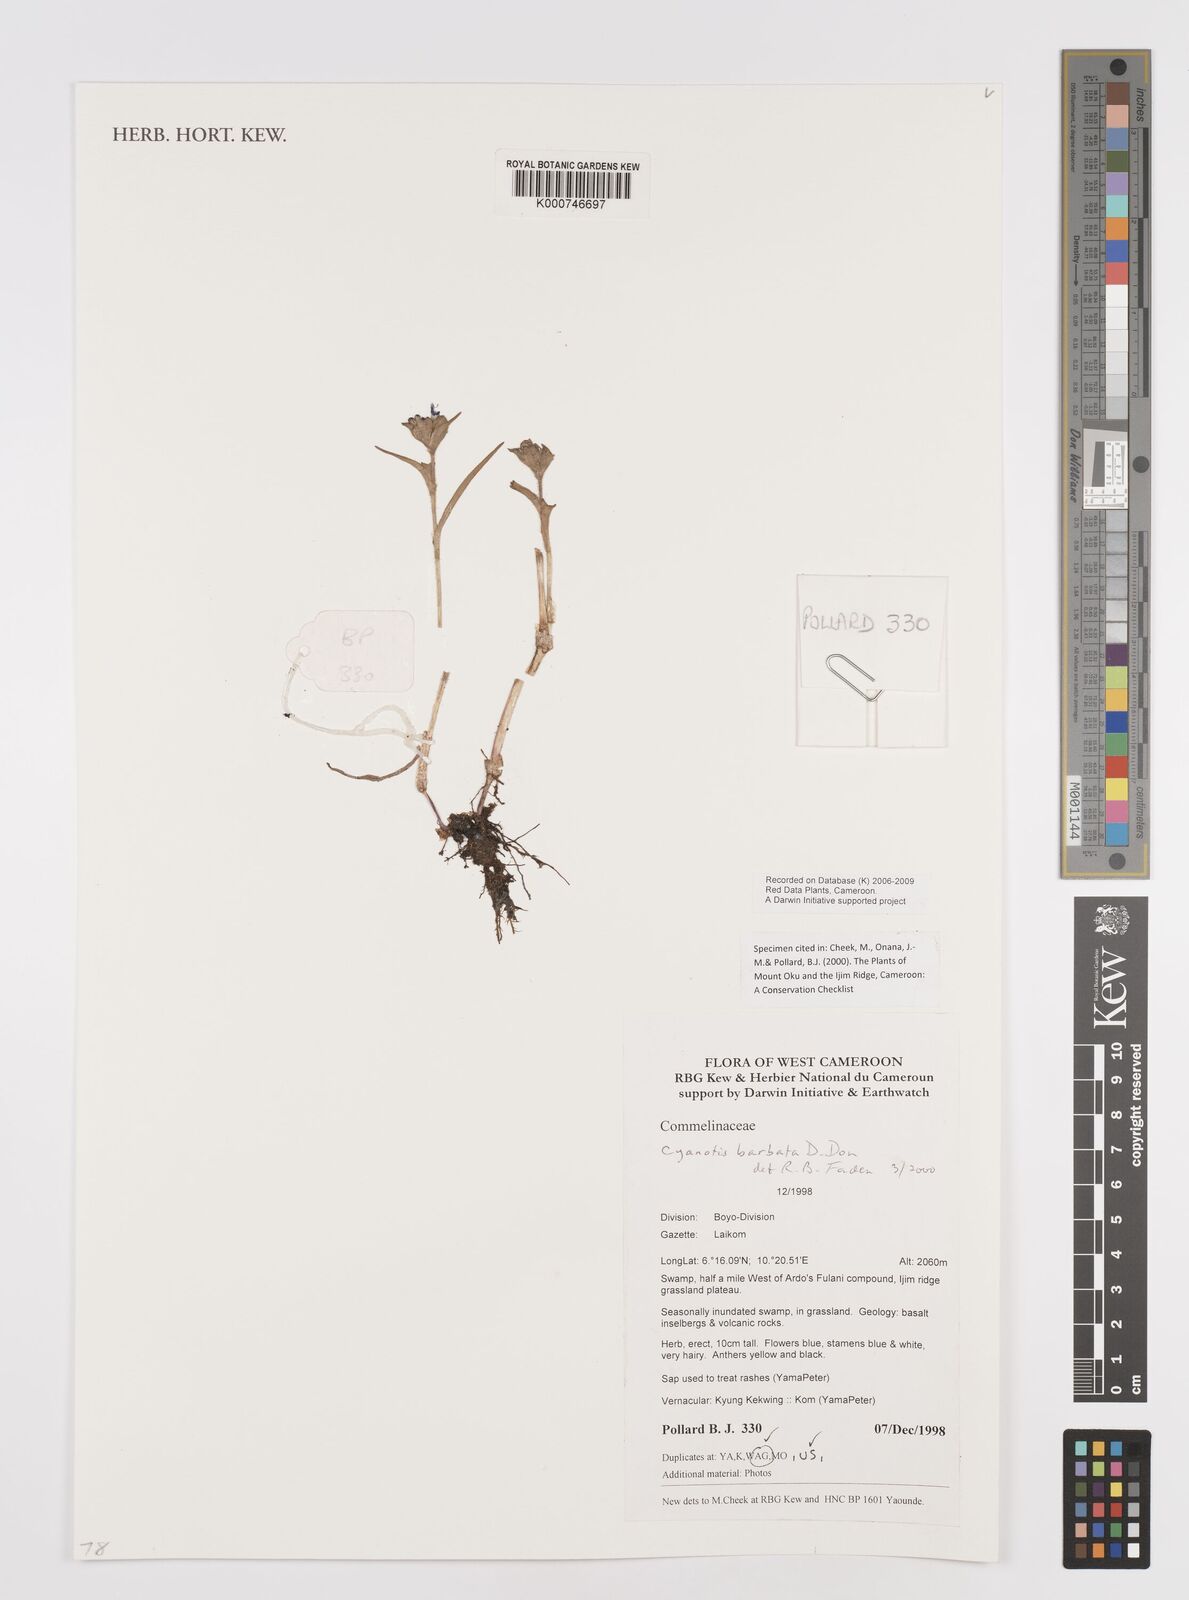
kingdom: Plantae
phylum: Tracheophyta
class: Liliopsida
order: Commelinales
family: Commelinaceae
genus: Cyanotis
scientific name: Cyanotis vaga
